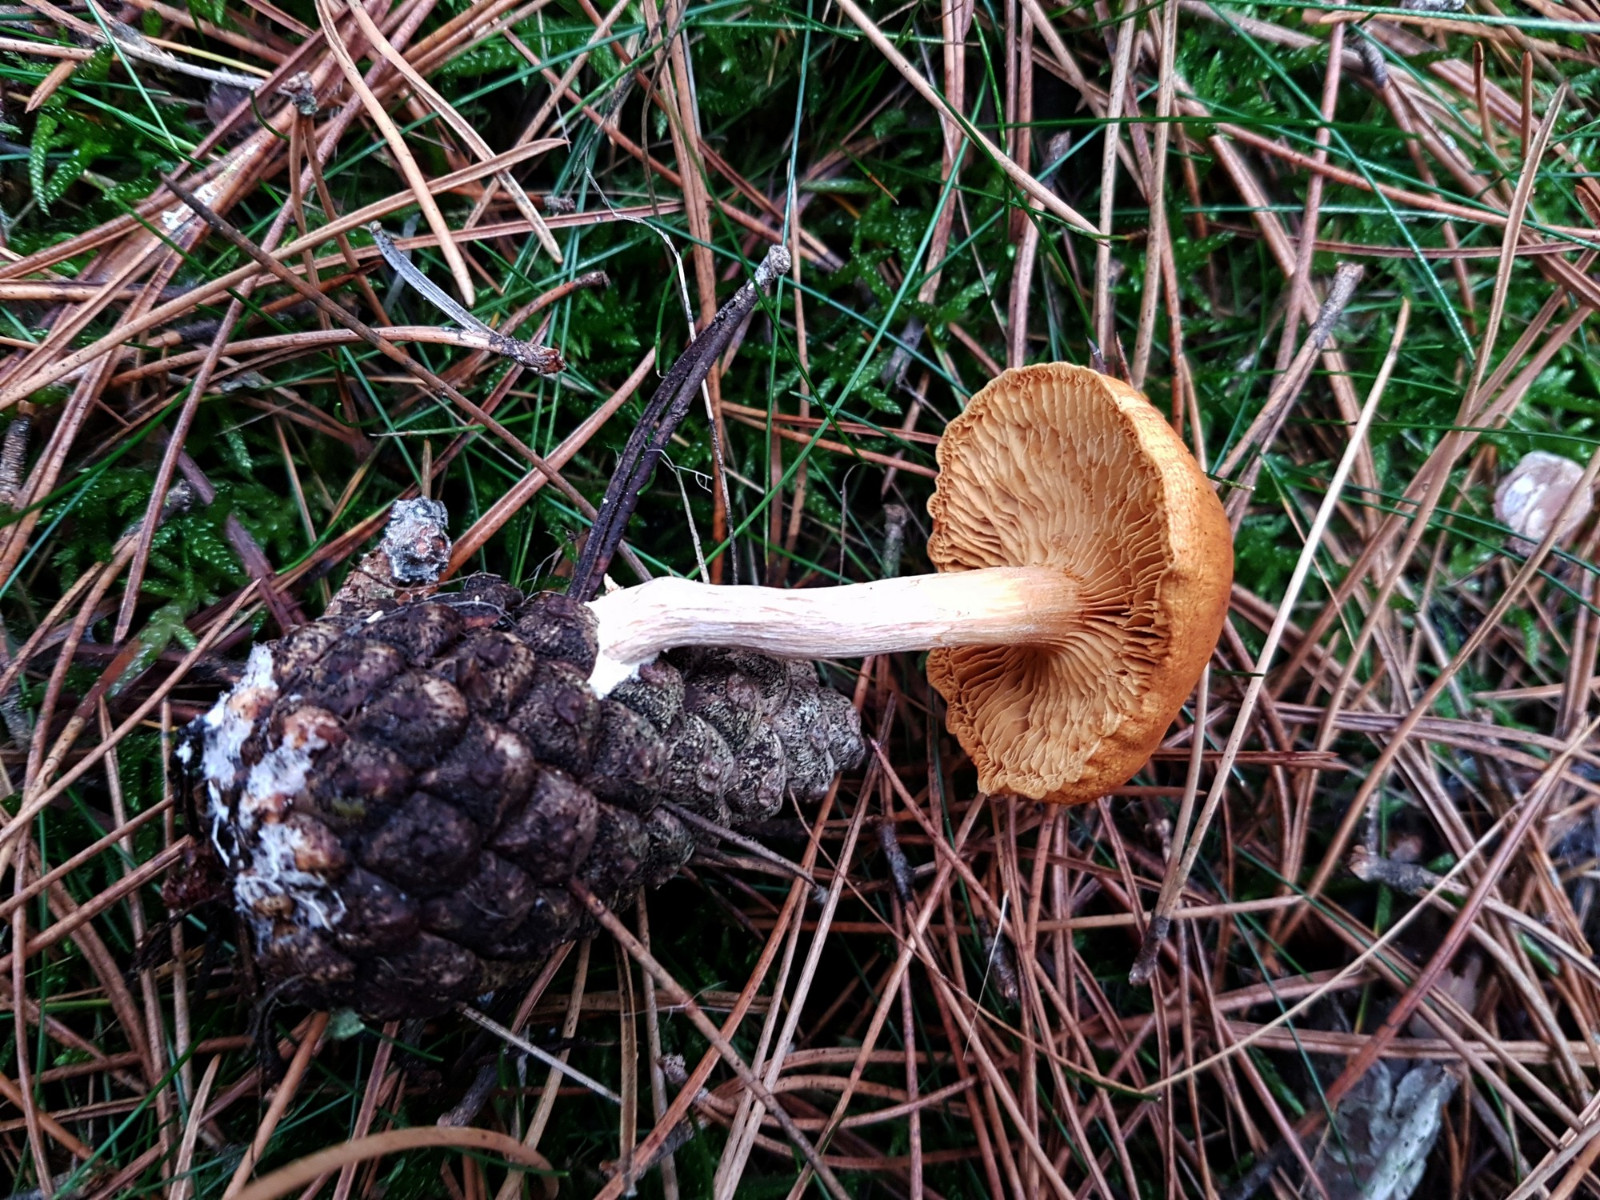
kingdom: Fungi
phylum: Basidiomycota
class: Agaricomycetes
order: Agaricales
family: Hymenogastraceae
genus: Gymnopilus
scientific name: Gymnopilus penetrans
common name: plettet flammehat
